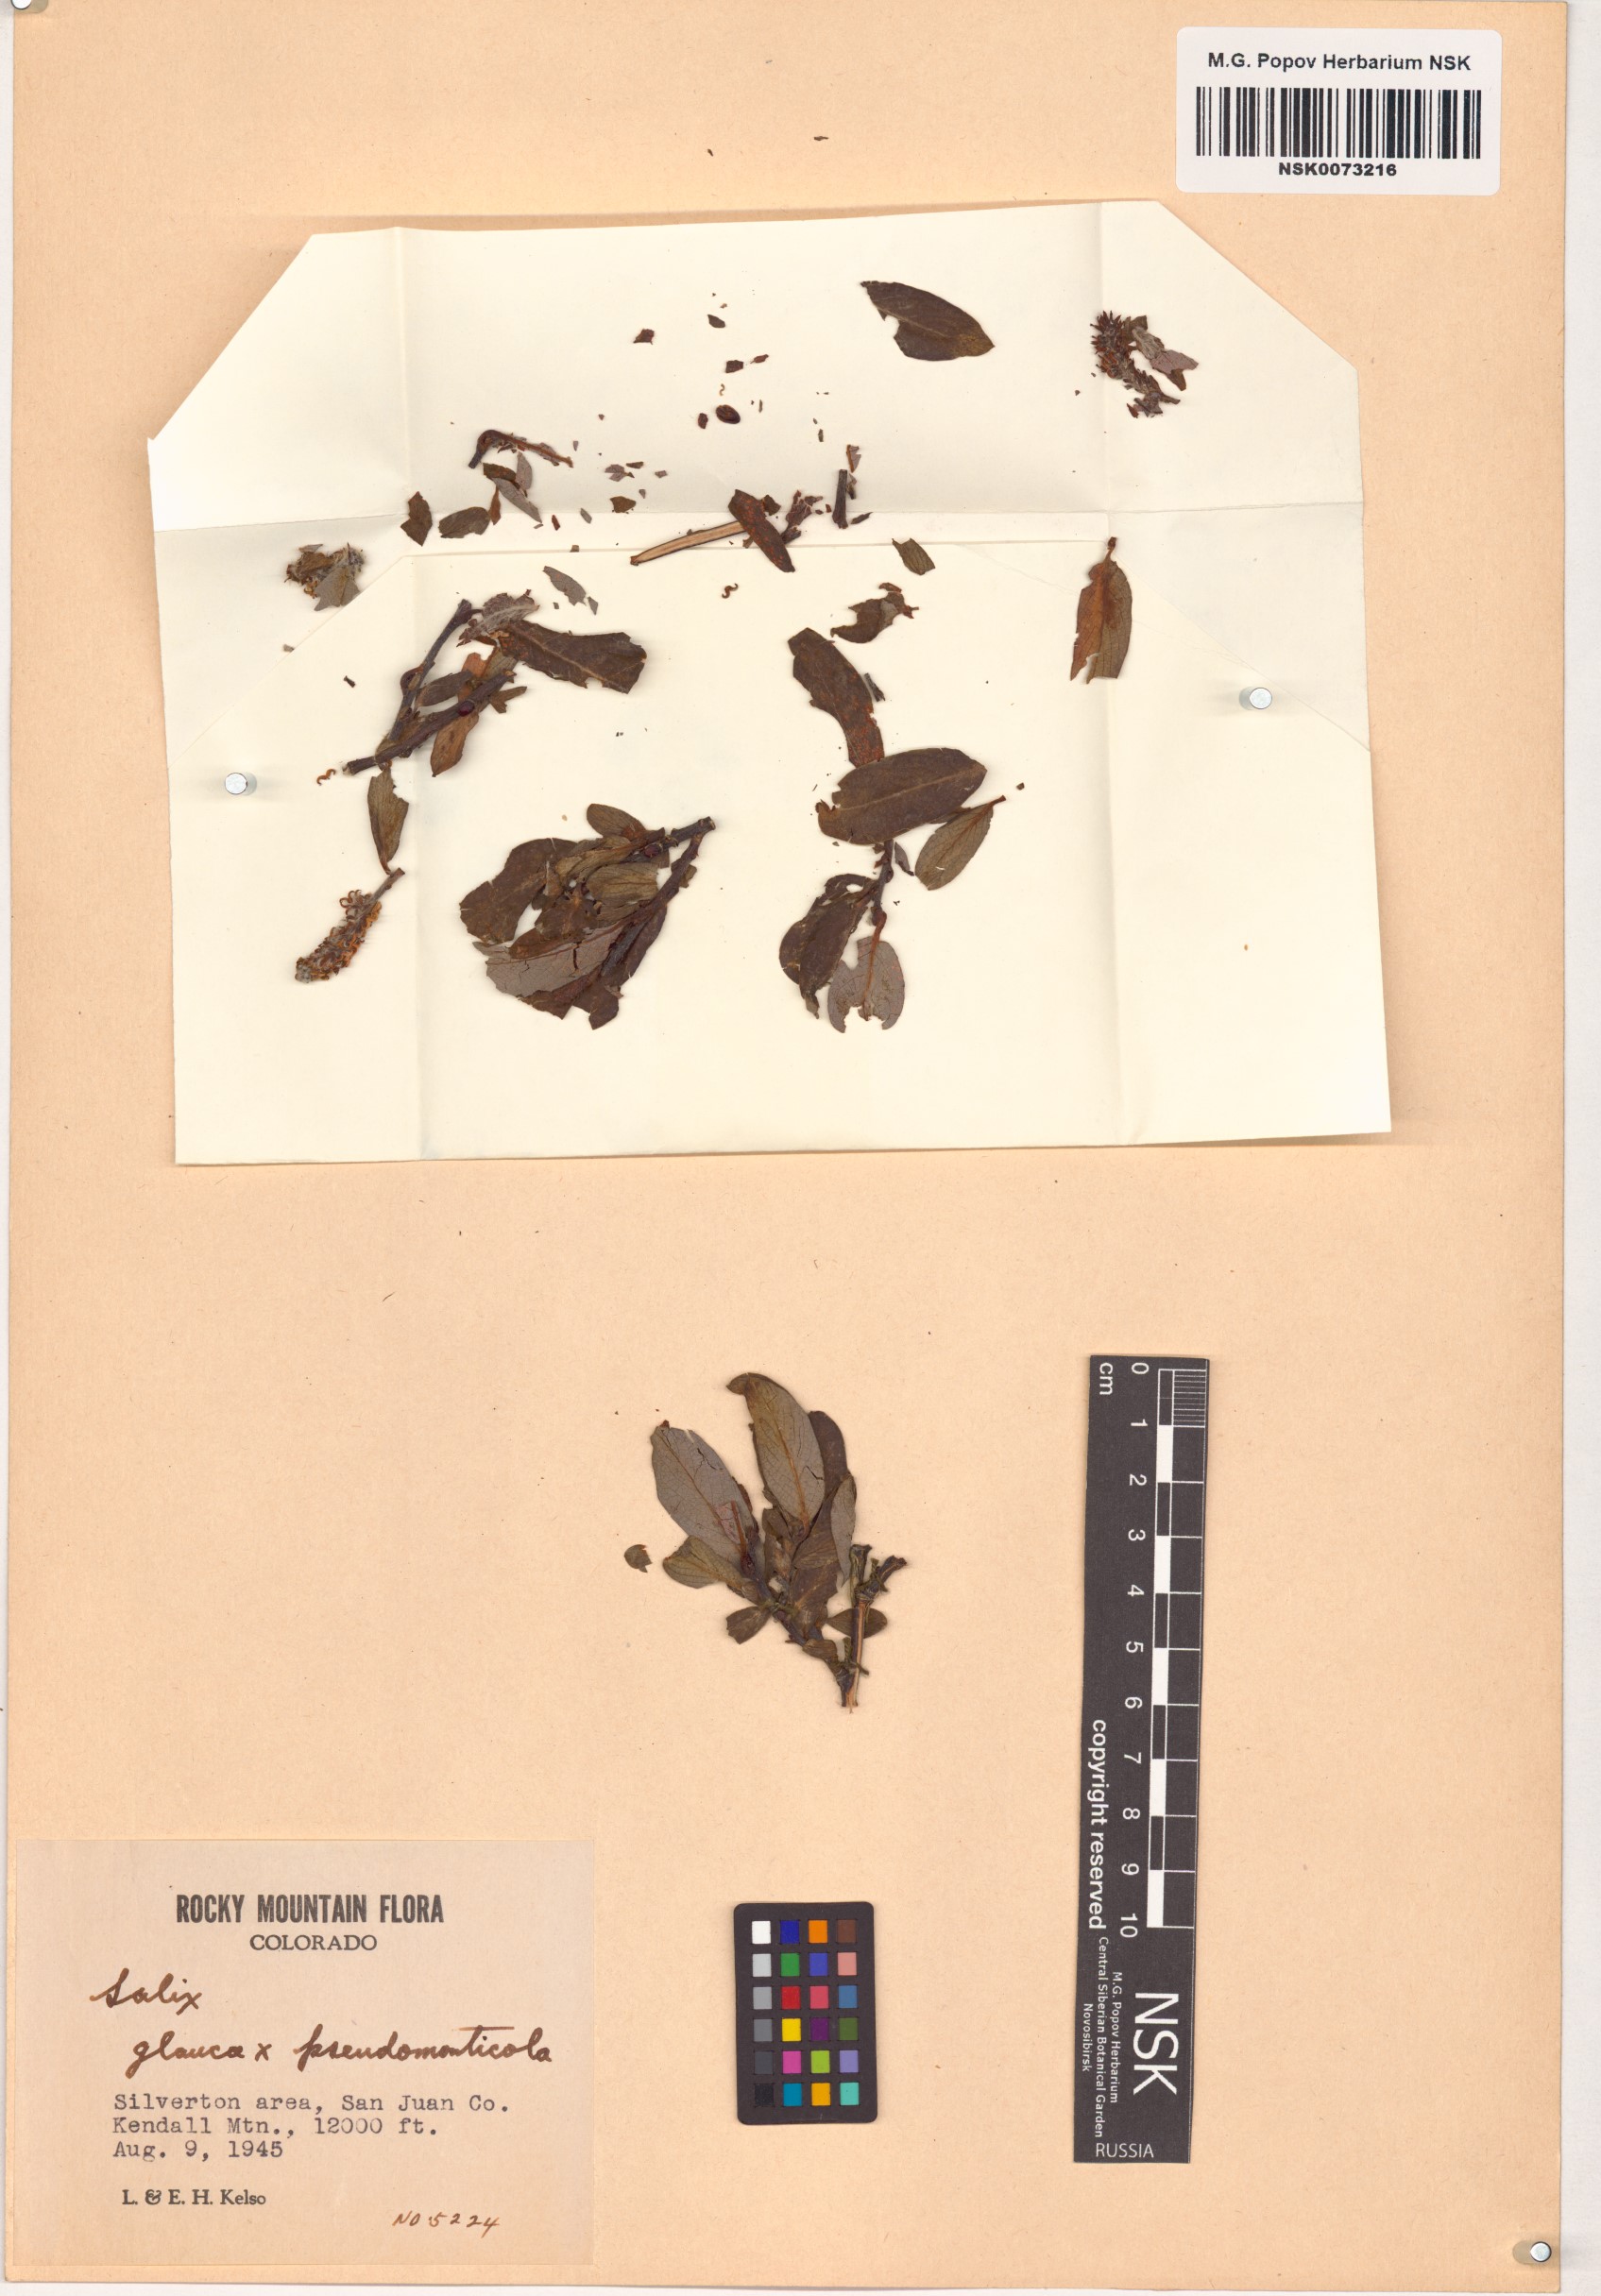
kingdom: Plantae
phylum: Tracheophyta
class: Magnoliopsida
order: Malpighiales
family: Salicaceae
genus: Salix
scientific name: Salix
